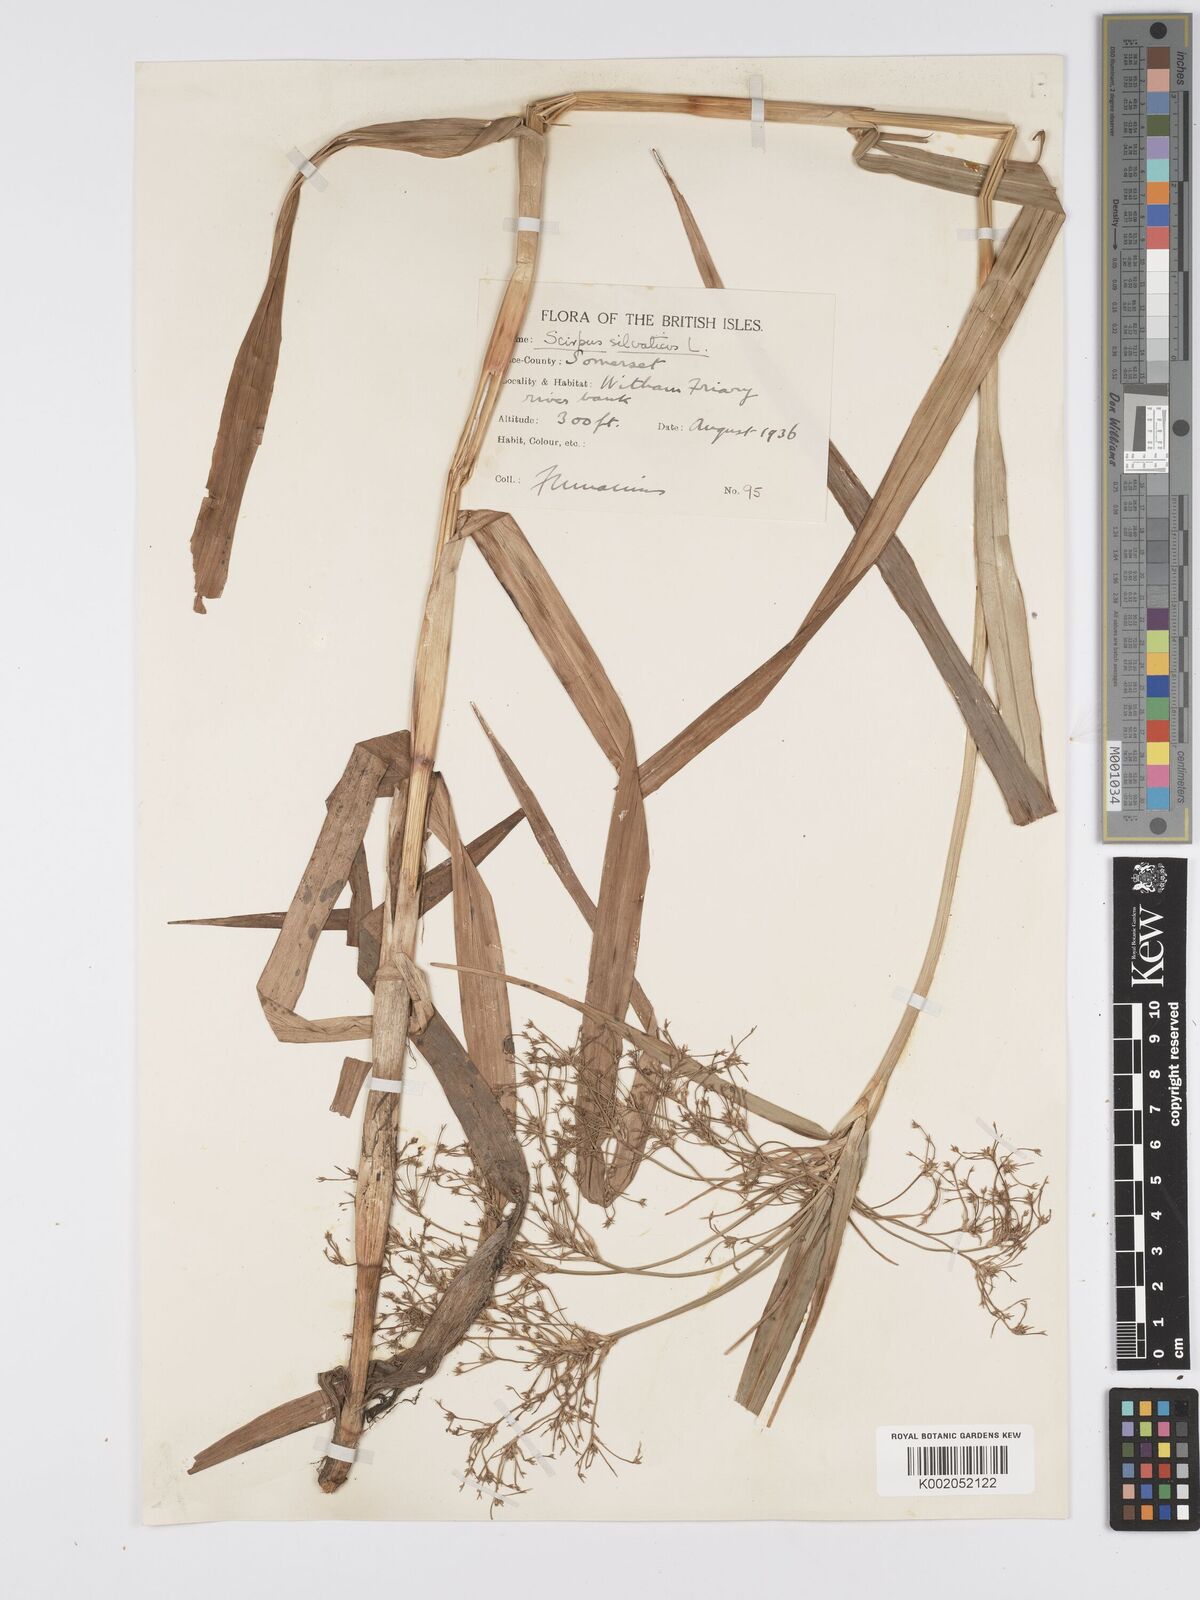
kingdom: Plantae
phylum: Tracheophyta
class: Liliopsida
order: Poales
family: Cyperaceae
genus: Scirpus
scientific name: Scirpus sylvaticus
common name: Wood club-rush
